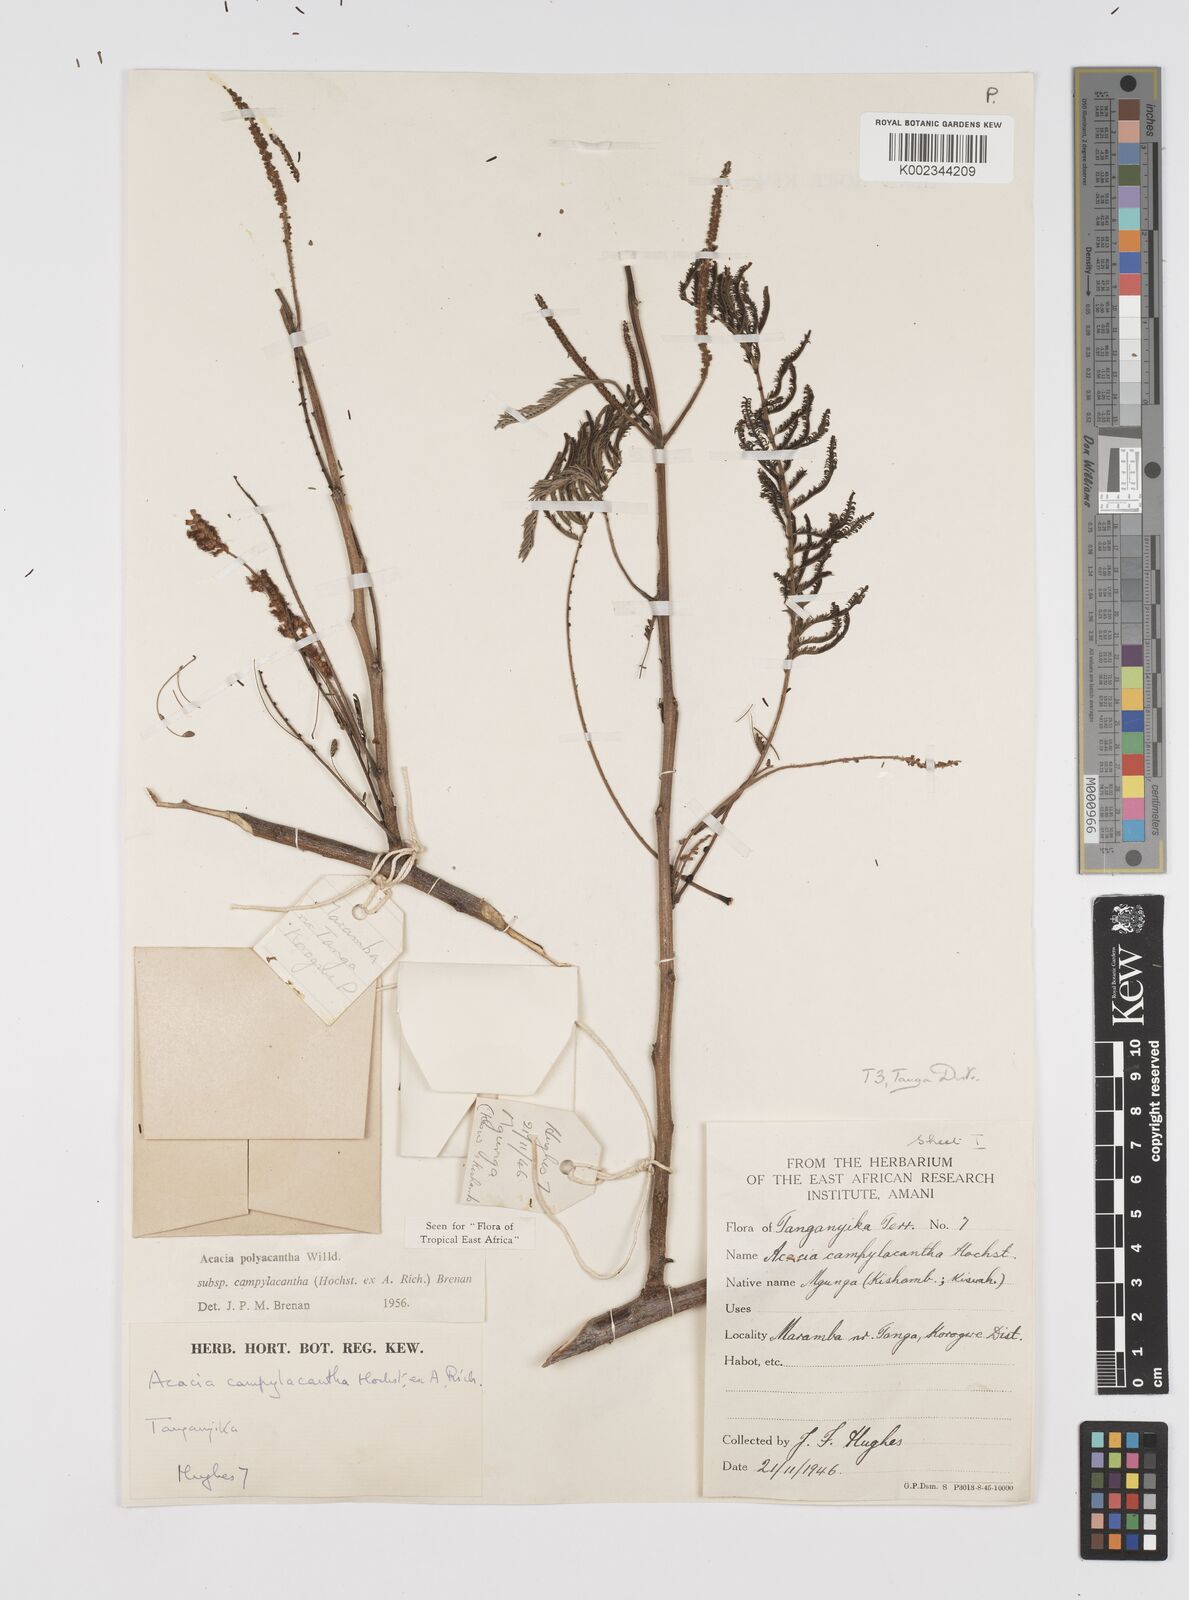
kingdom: Plantae
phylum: Tracheophyta
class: Magnoliopsida
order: Fabales
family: Fabaceae
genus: Senegalia
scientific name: Senegalia polyacantha
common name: Whitethorn
